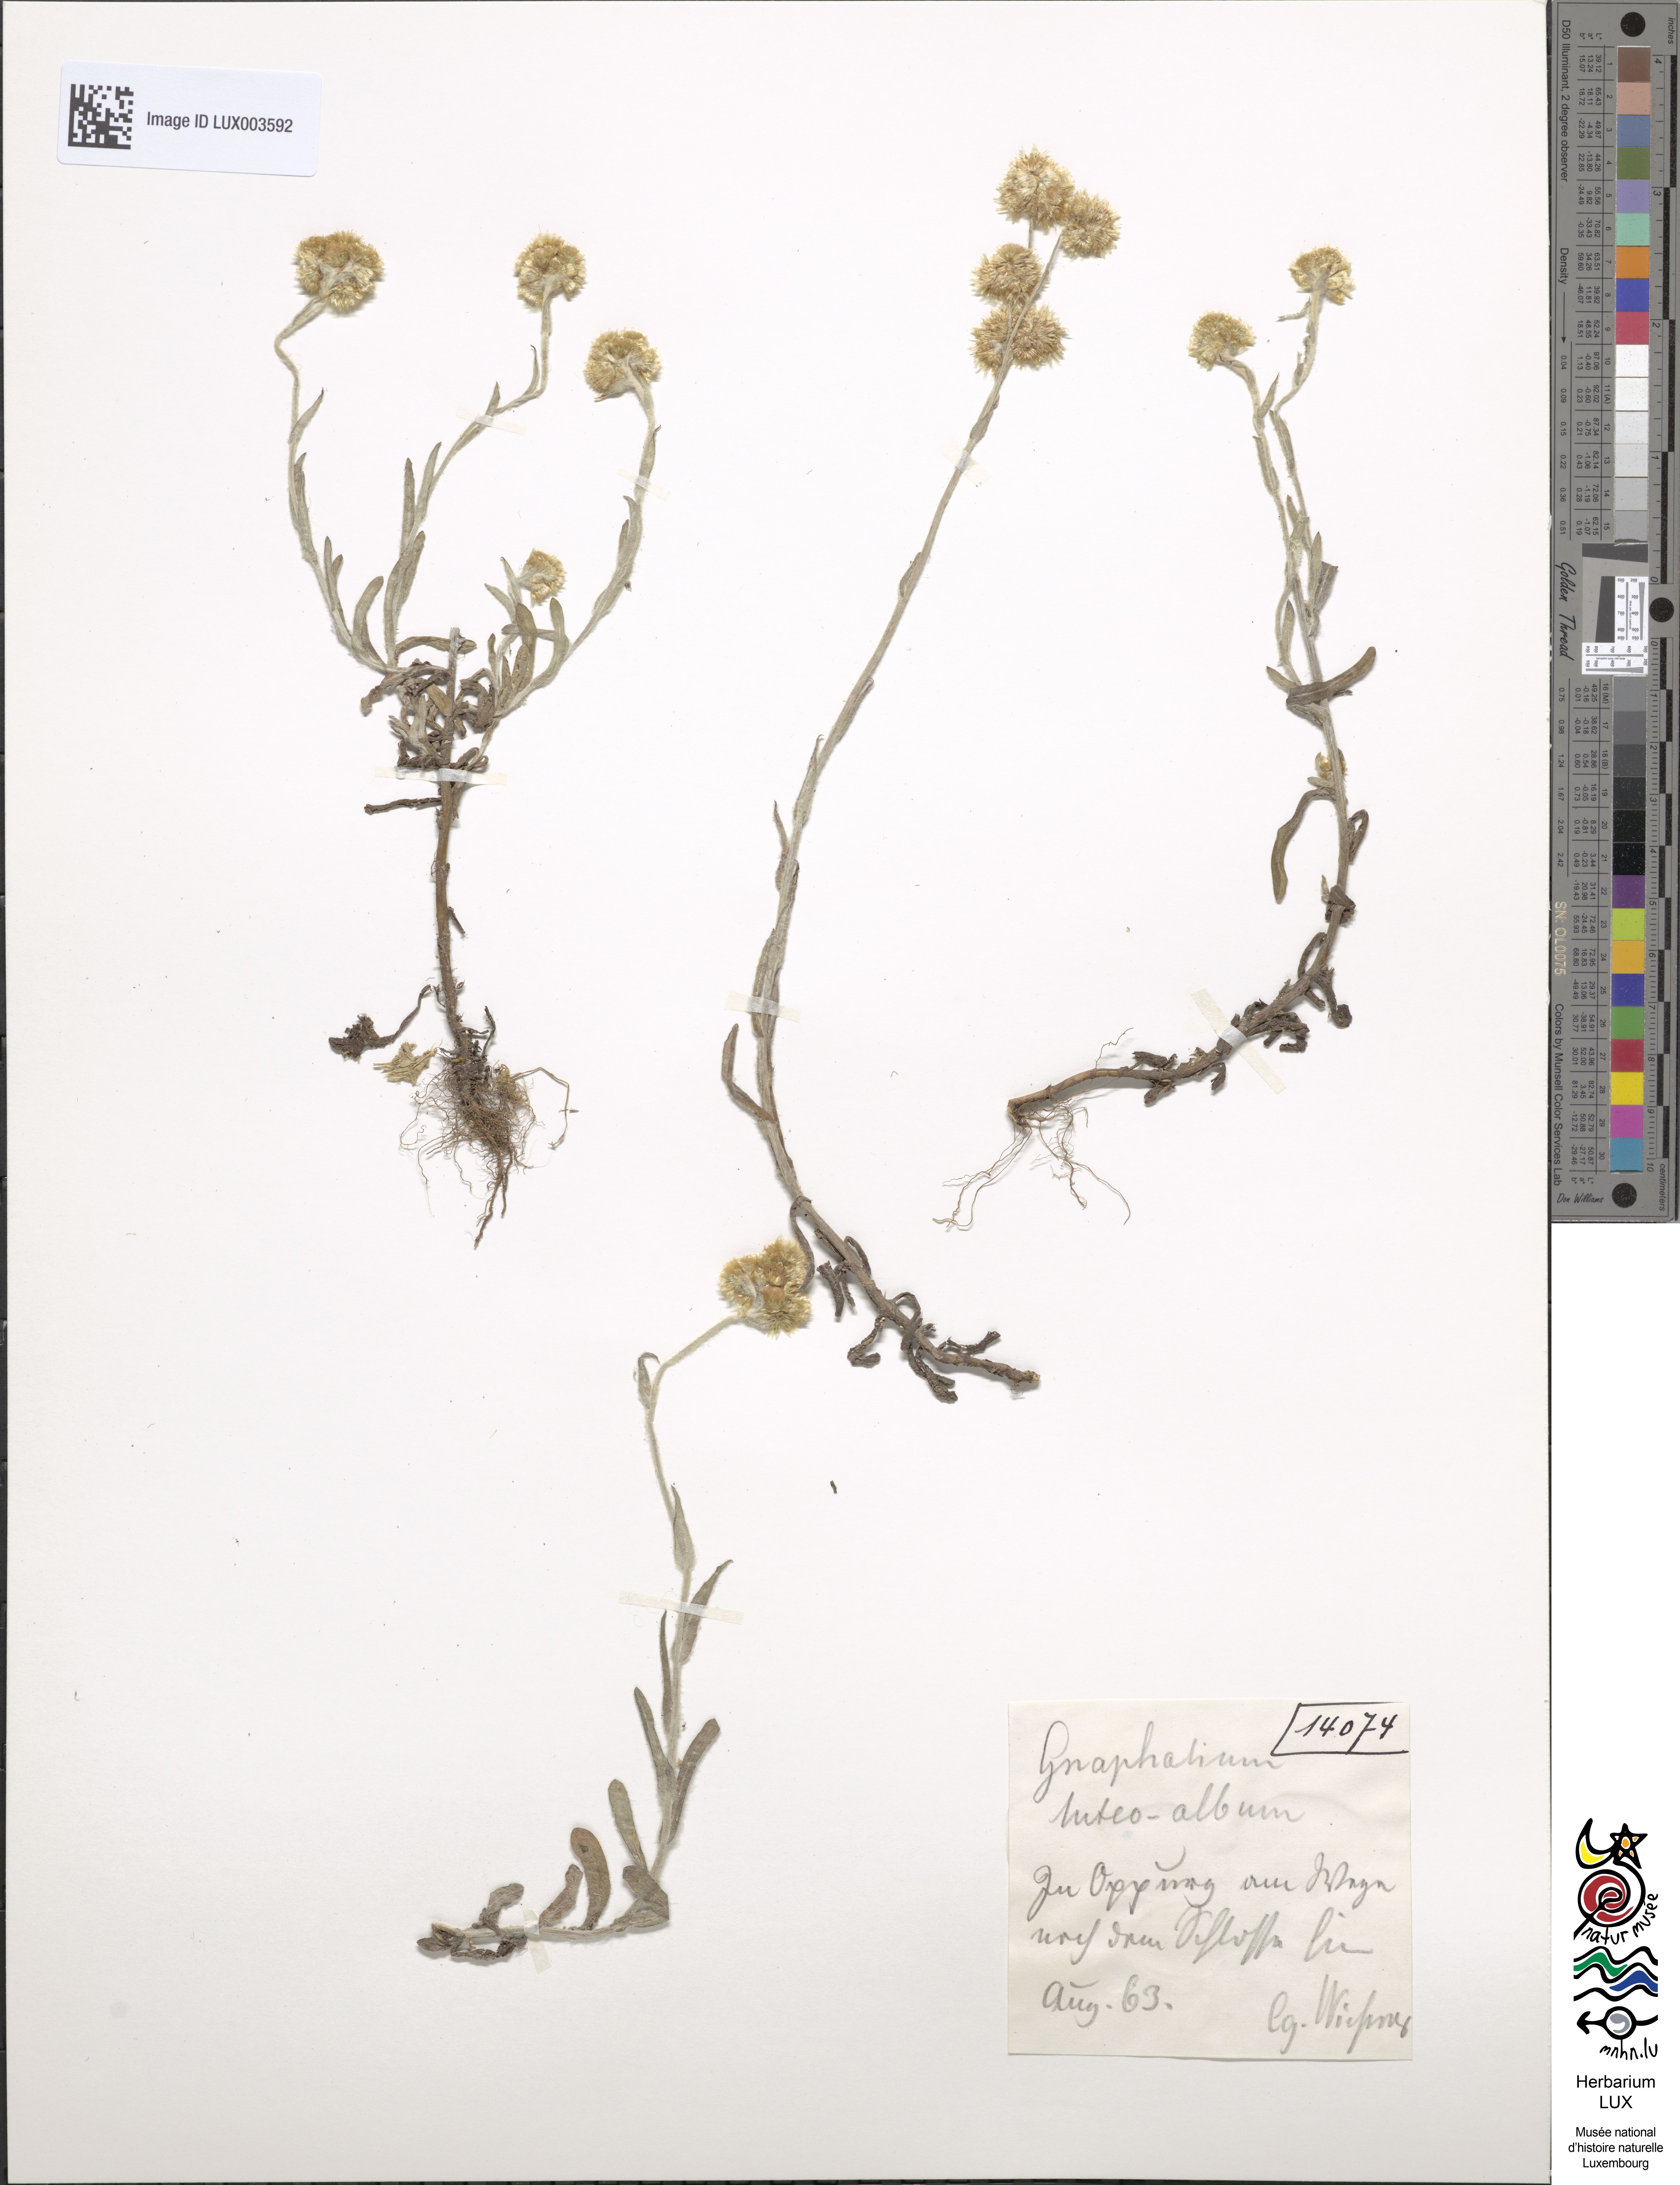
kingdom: Plantae
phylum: Tracheophyta
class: Magnoliopsida
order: Asterales
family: Asteraceae
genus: Helichrysum
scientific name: Helichrysum luteoalbum
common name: Daisy
